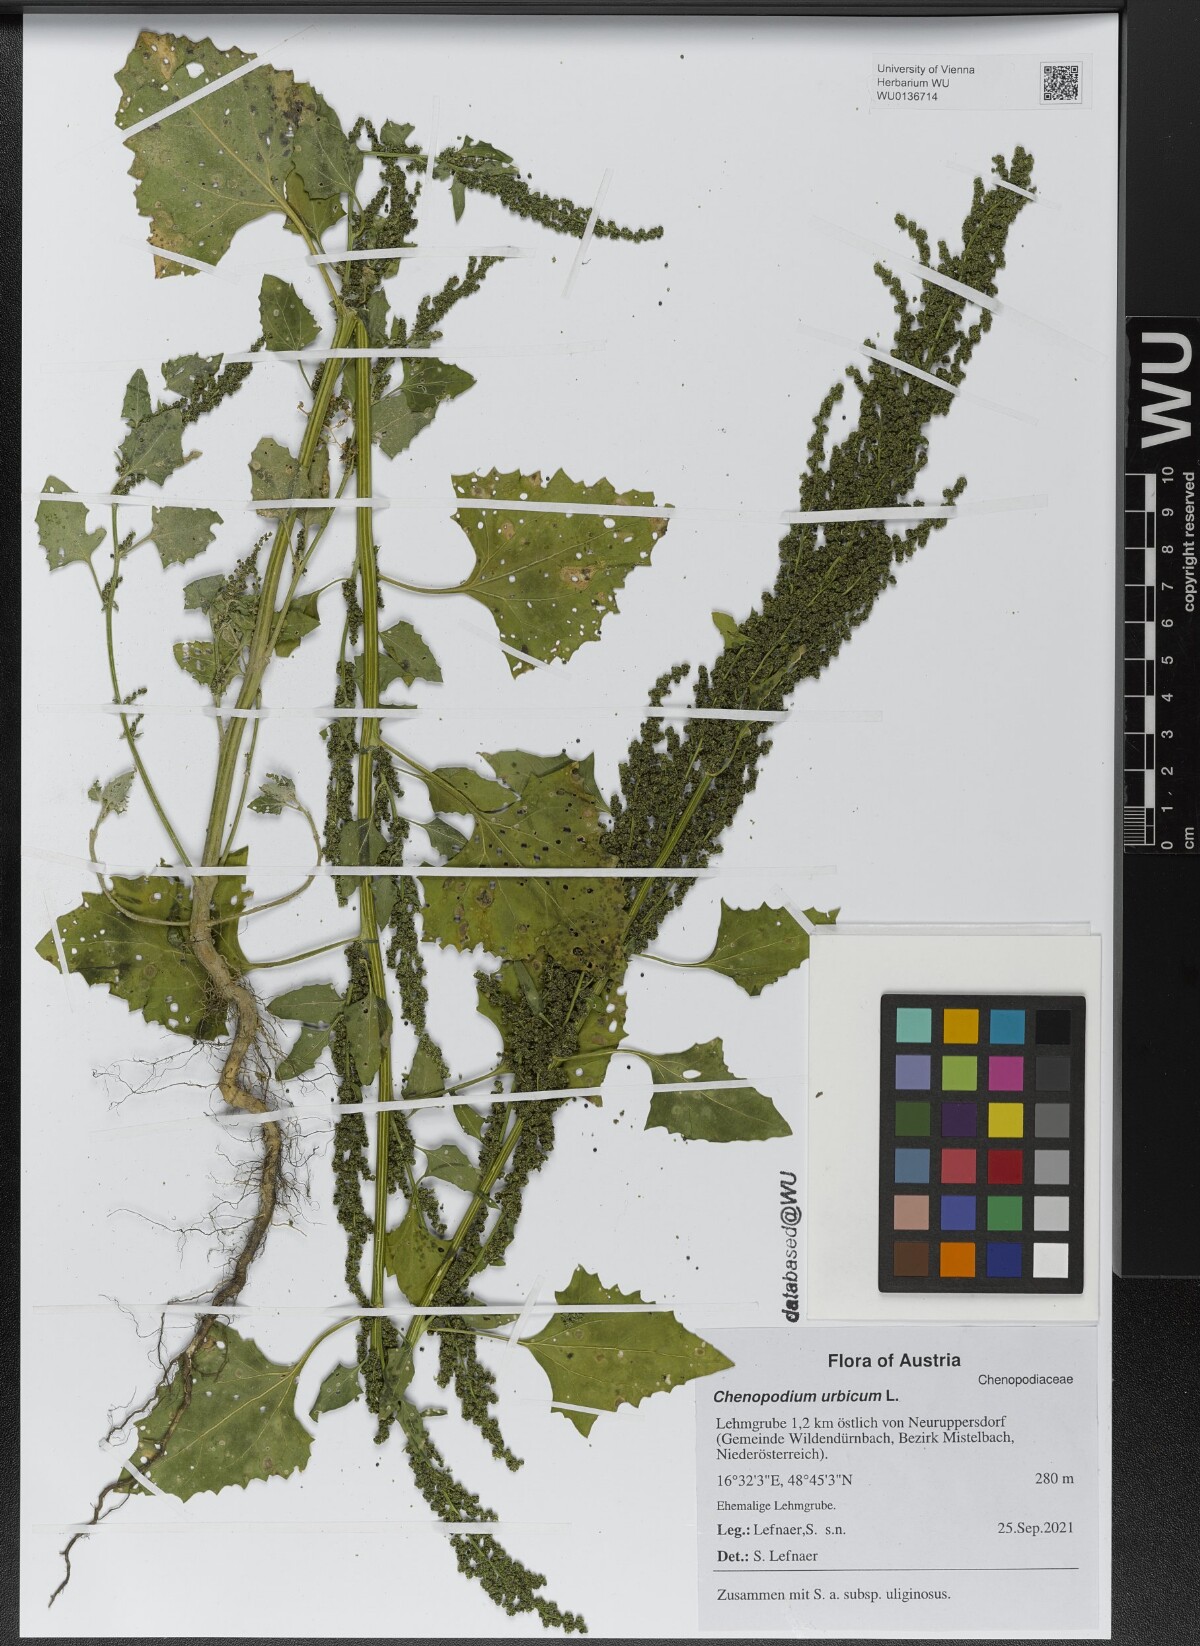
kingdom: Plantae
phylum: Tracheophyta
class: Magnoliopsida
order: Caryophyllales
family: Amaranthaceae
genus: Oxybasis
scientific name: Oxybasis urbica
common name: City goosefoot
